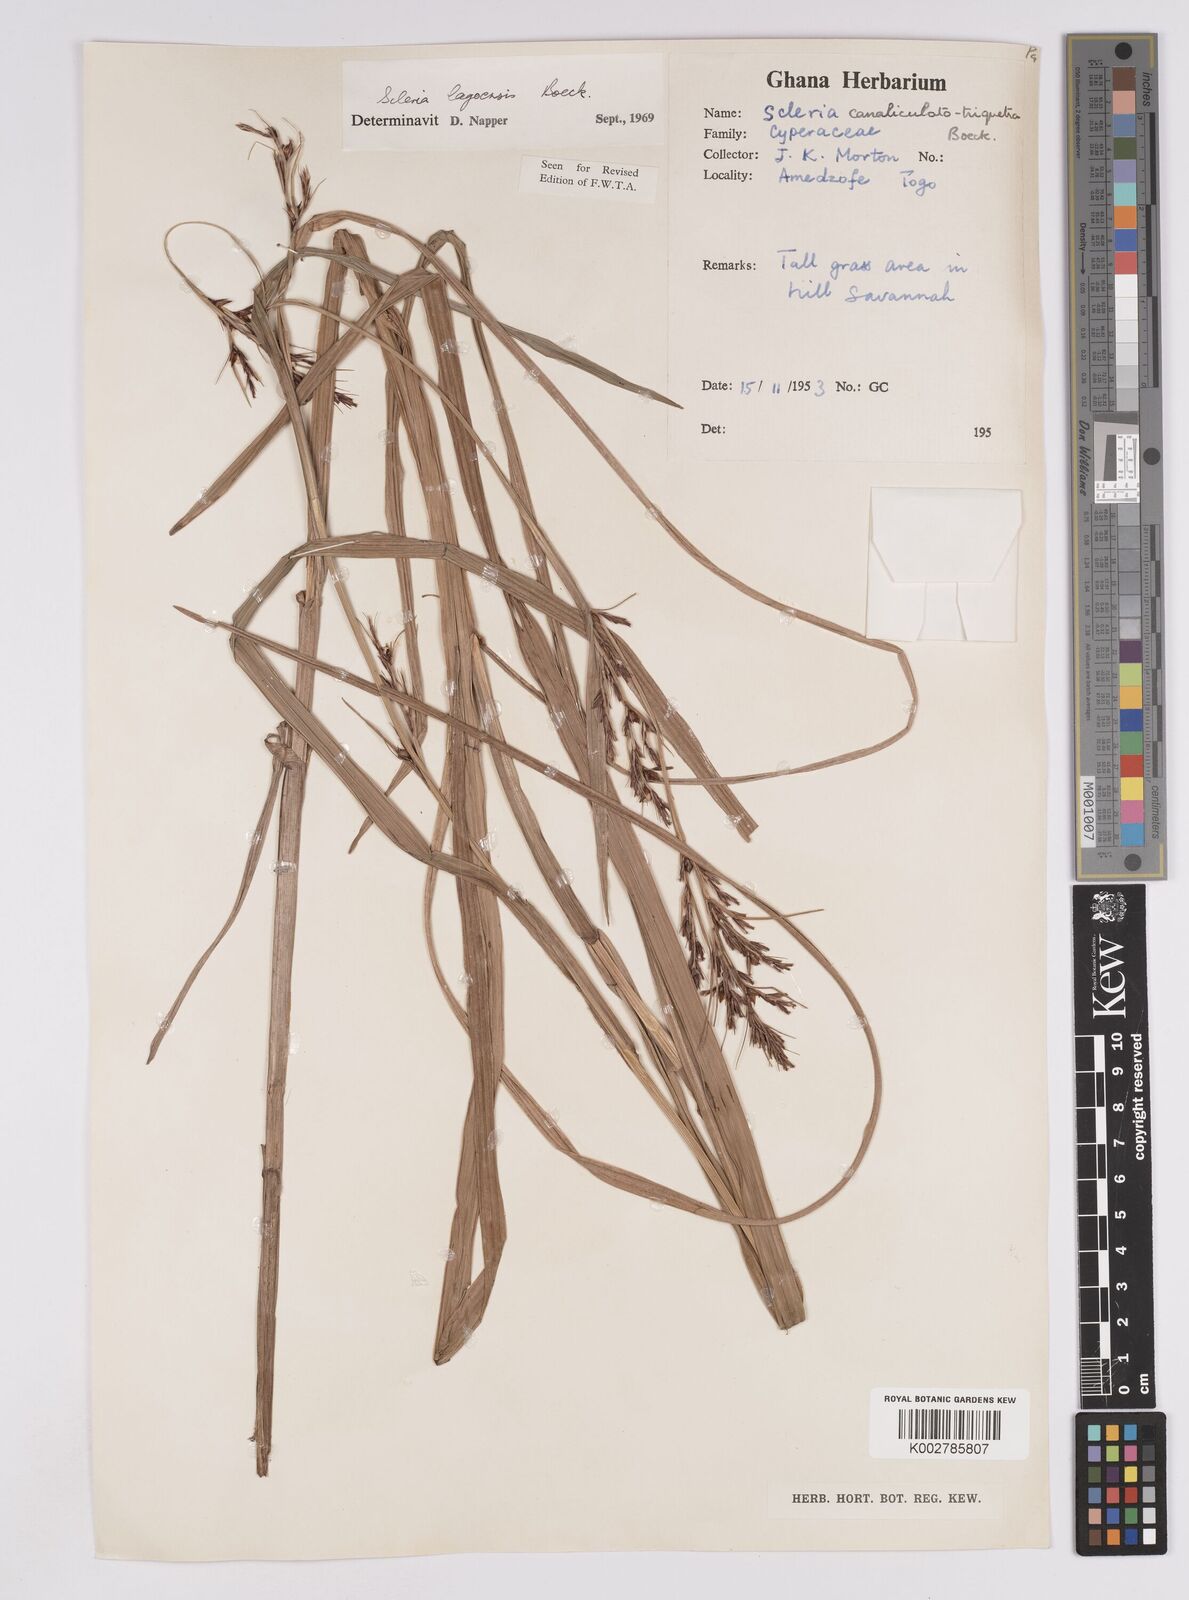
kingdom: Plantae
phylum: Tracheophyta
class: Liliopsida
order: Poales
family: Cyperaceae
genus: Scleria
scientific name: Scleria lagoensis
